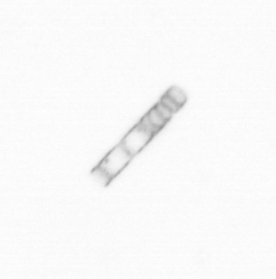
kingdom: Chromista
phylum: Ochrophyta
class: Bacillariophyceae
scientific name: Bacillariophyceae
